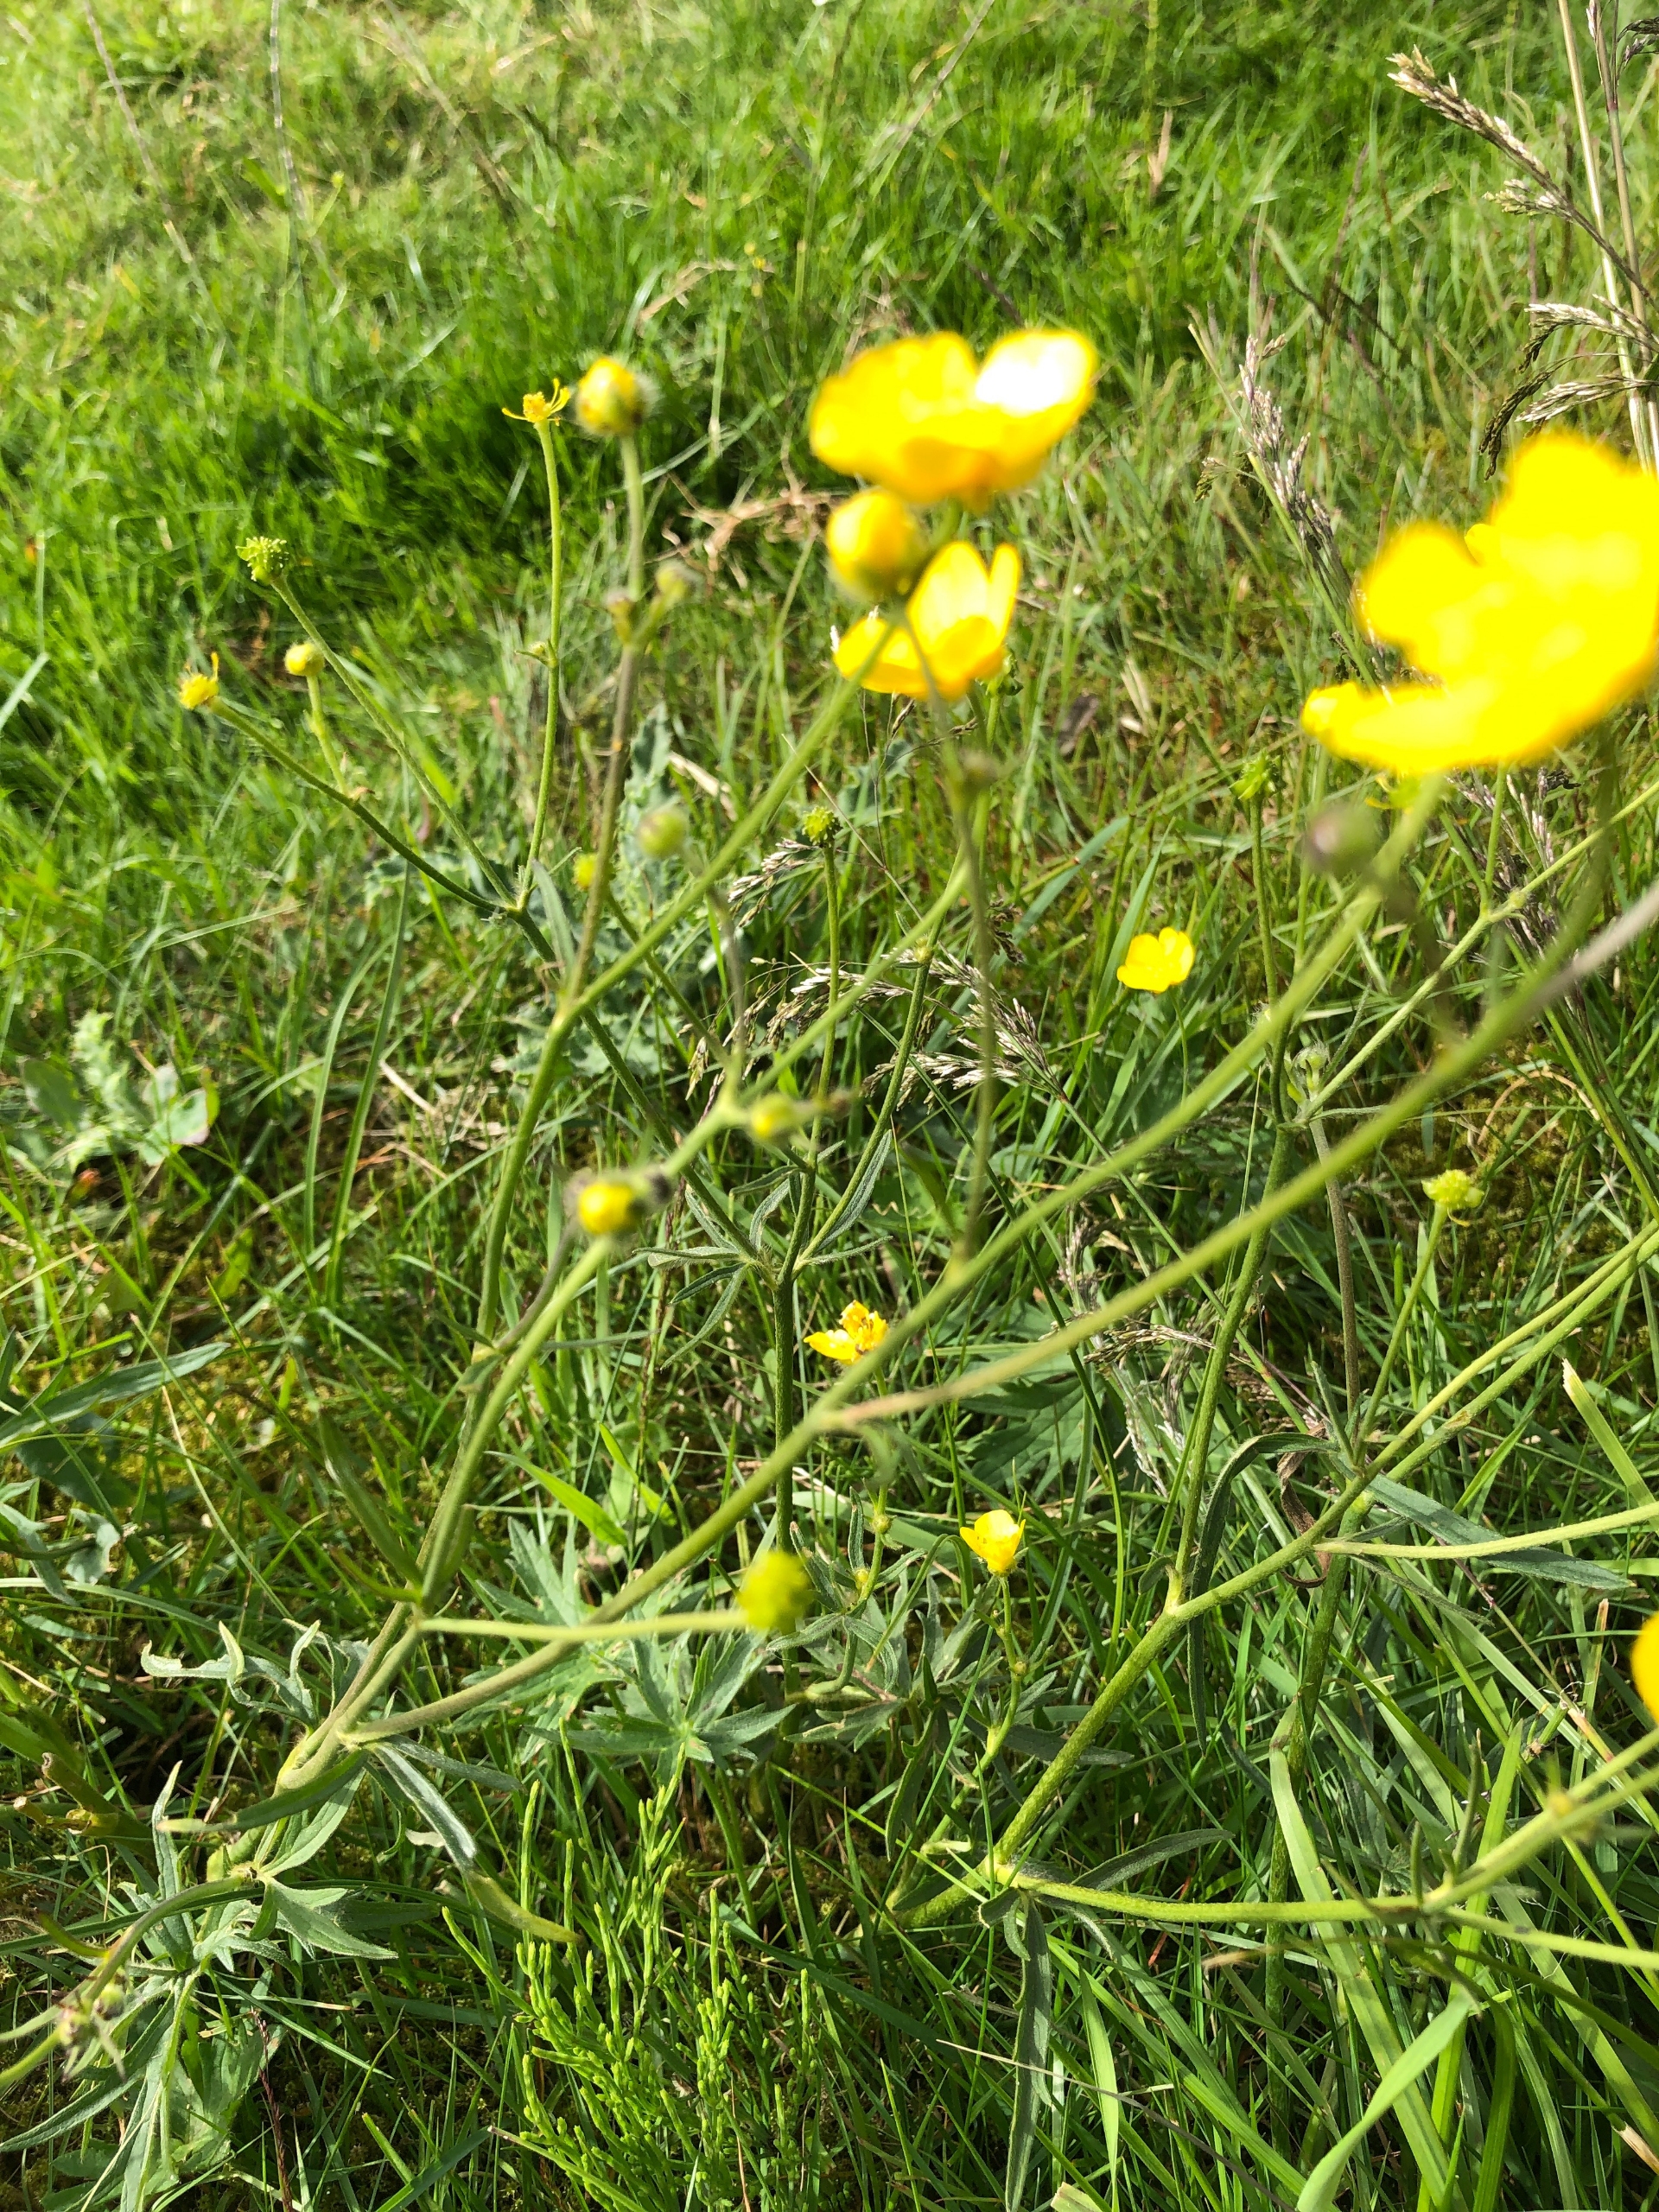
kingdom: Plantae
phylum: Tracheophyta
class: Magnoliopsida
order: Ranunculales
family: Ranunculaceae
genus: Ranunculus
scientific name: Ranunculus acris
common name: Bidende ranunkel
